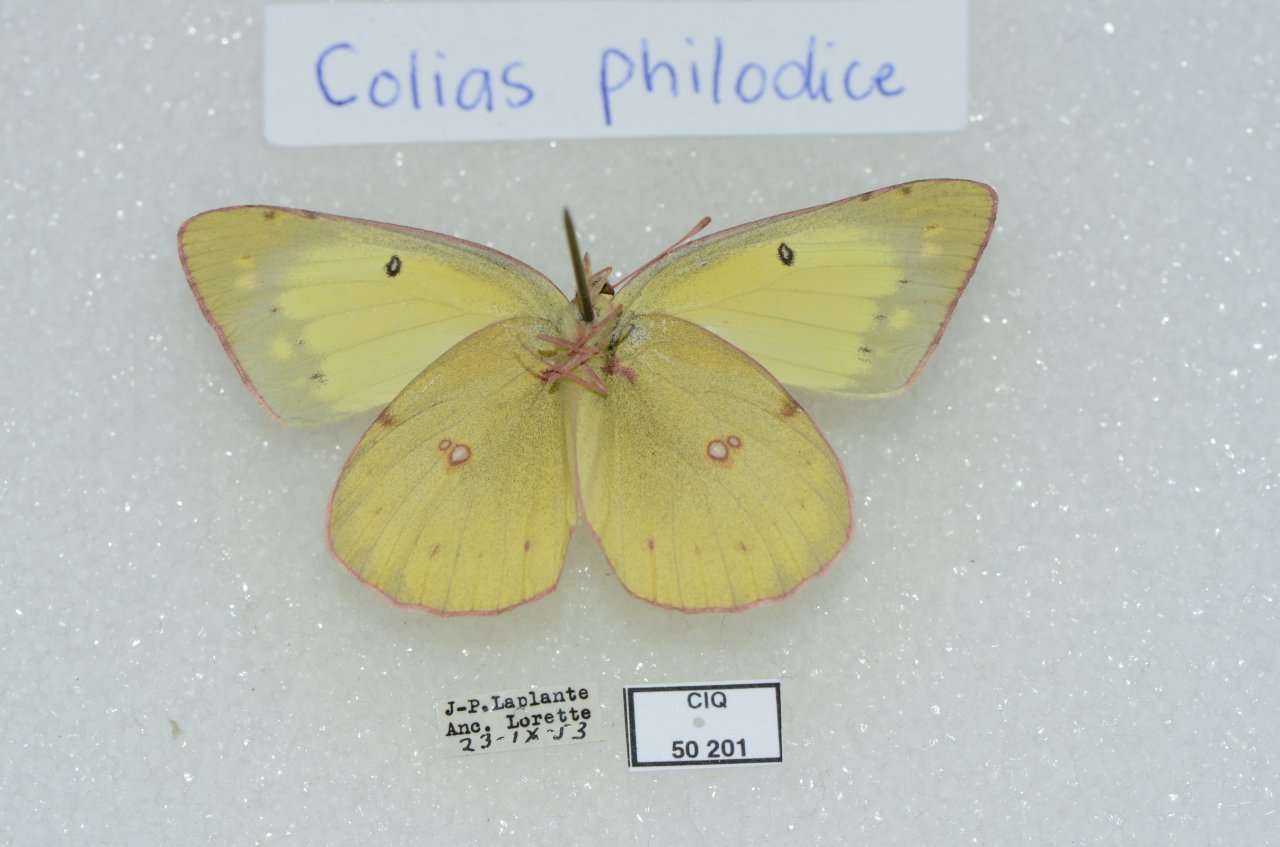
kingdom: Animalia
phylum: Arthropoda
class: Insecta
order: Lepidoptera
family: Pieridae
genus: Colias
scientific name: Colias philodice
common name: Clouded Sulphur
